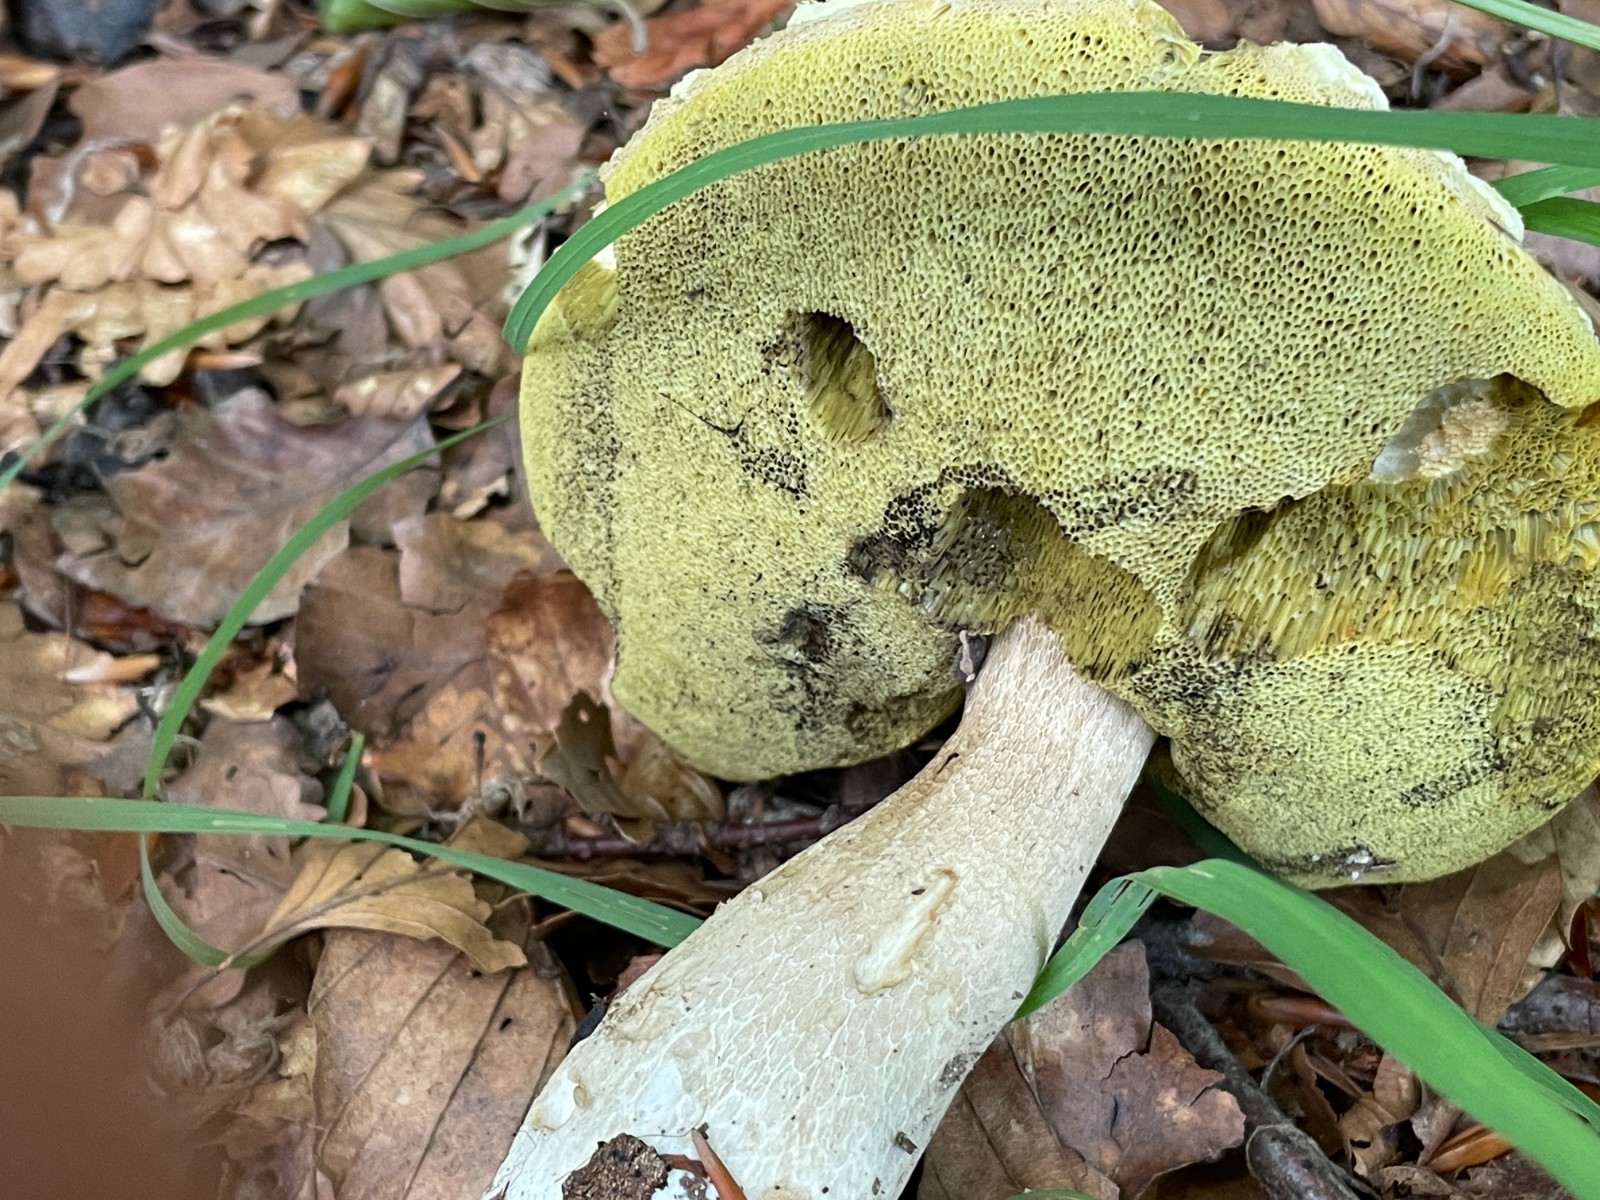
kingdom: Fungi
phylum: Basidiomycota
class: Agaricomycetes
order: Boletales
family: Boletaceae
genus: Boletus
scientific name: Boletus edulis
